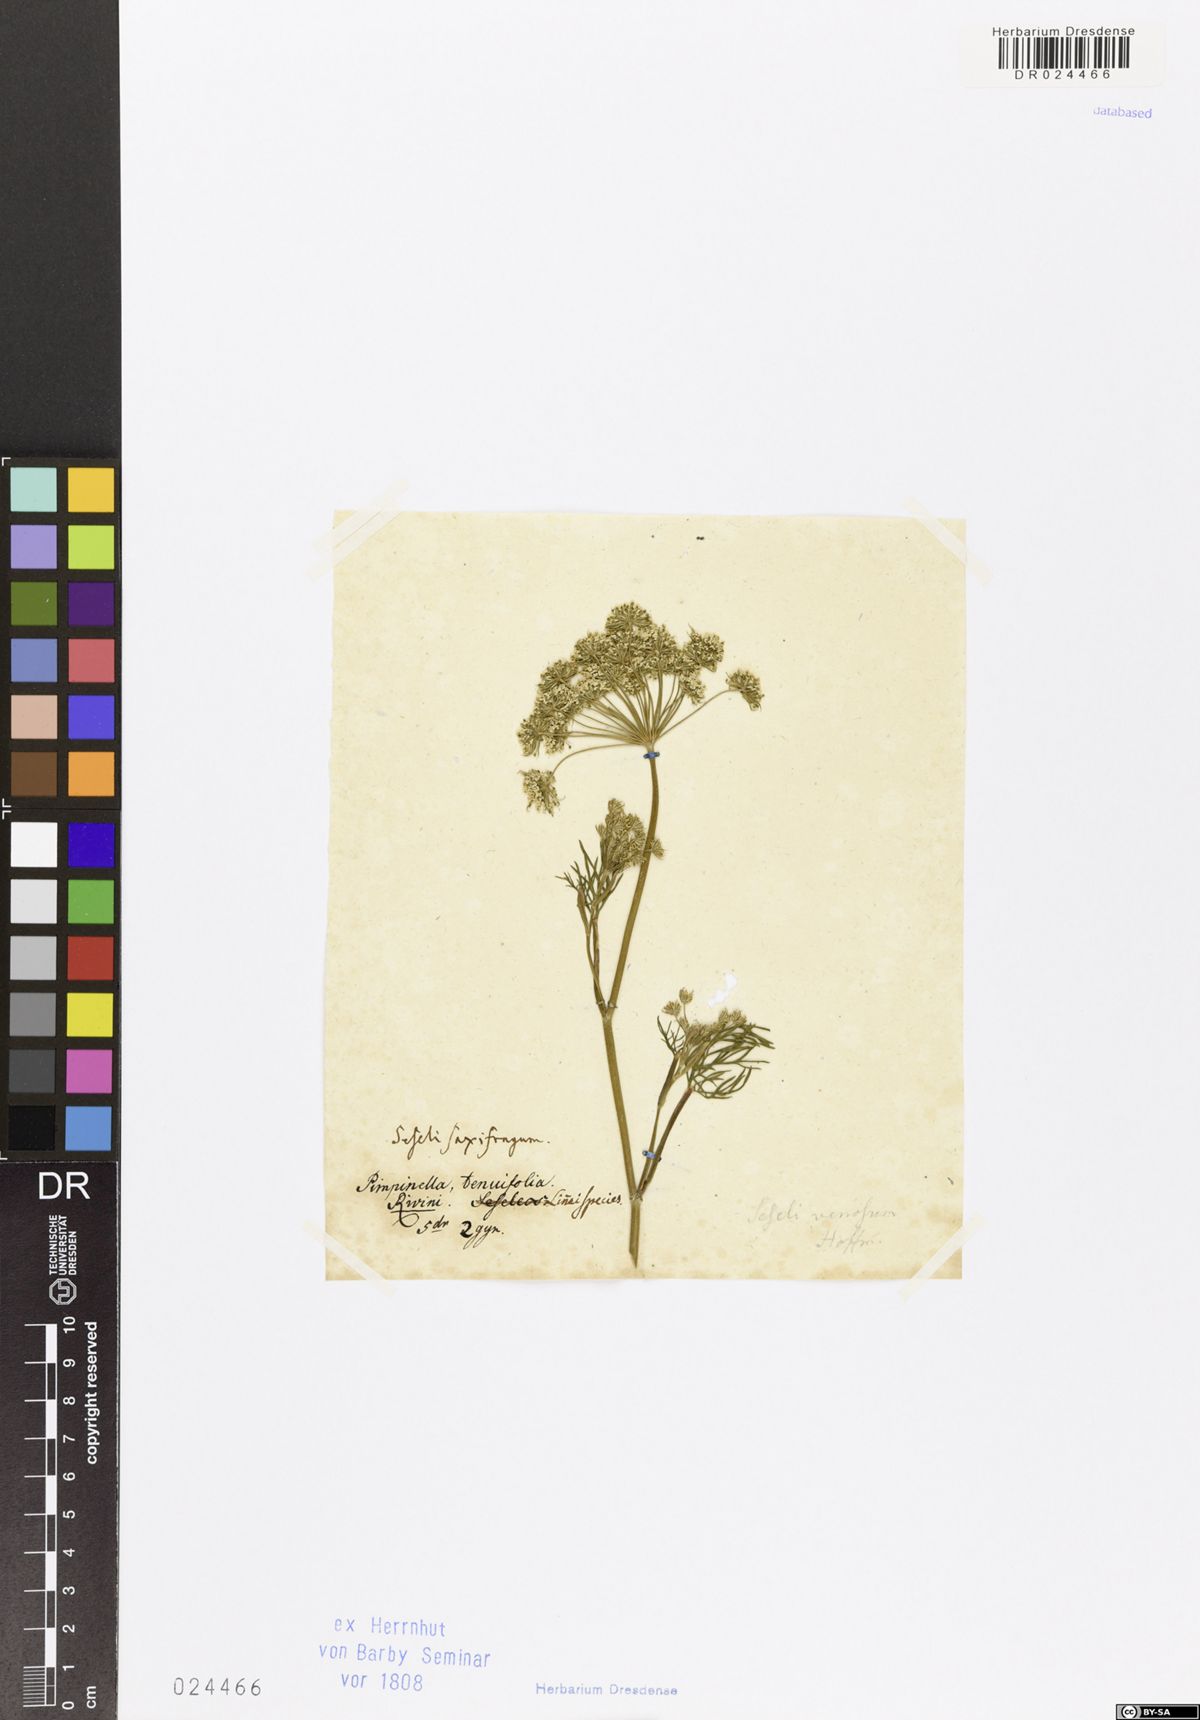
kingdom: Plantae
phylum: Tracheophyta
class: Magnoliopsida
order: Apiales
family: Apiaceae
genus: Kadenia
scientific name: Kadenia dubia
